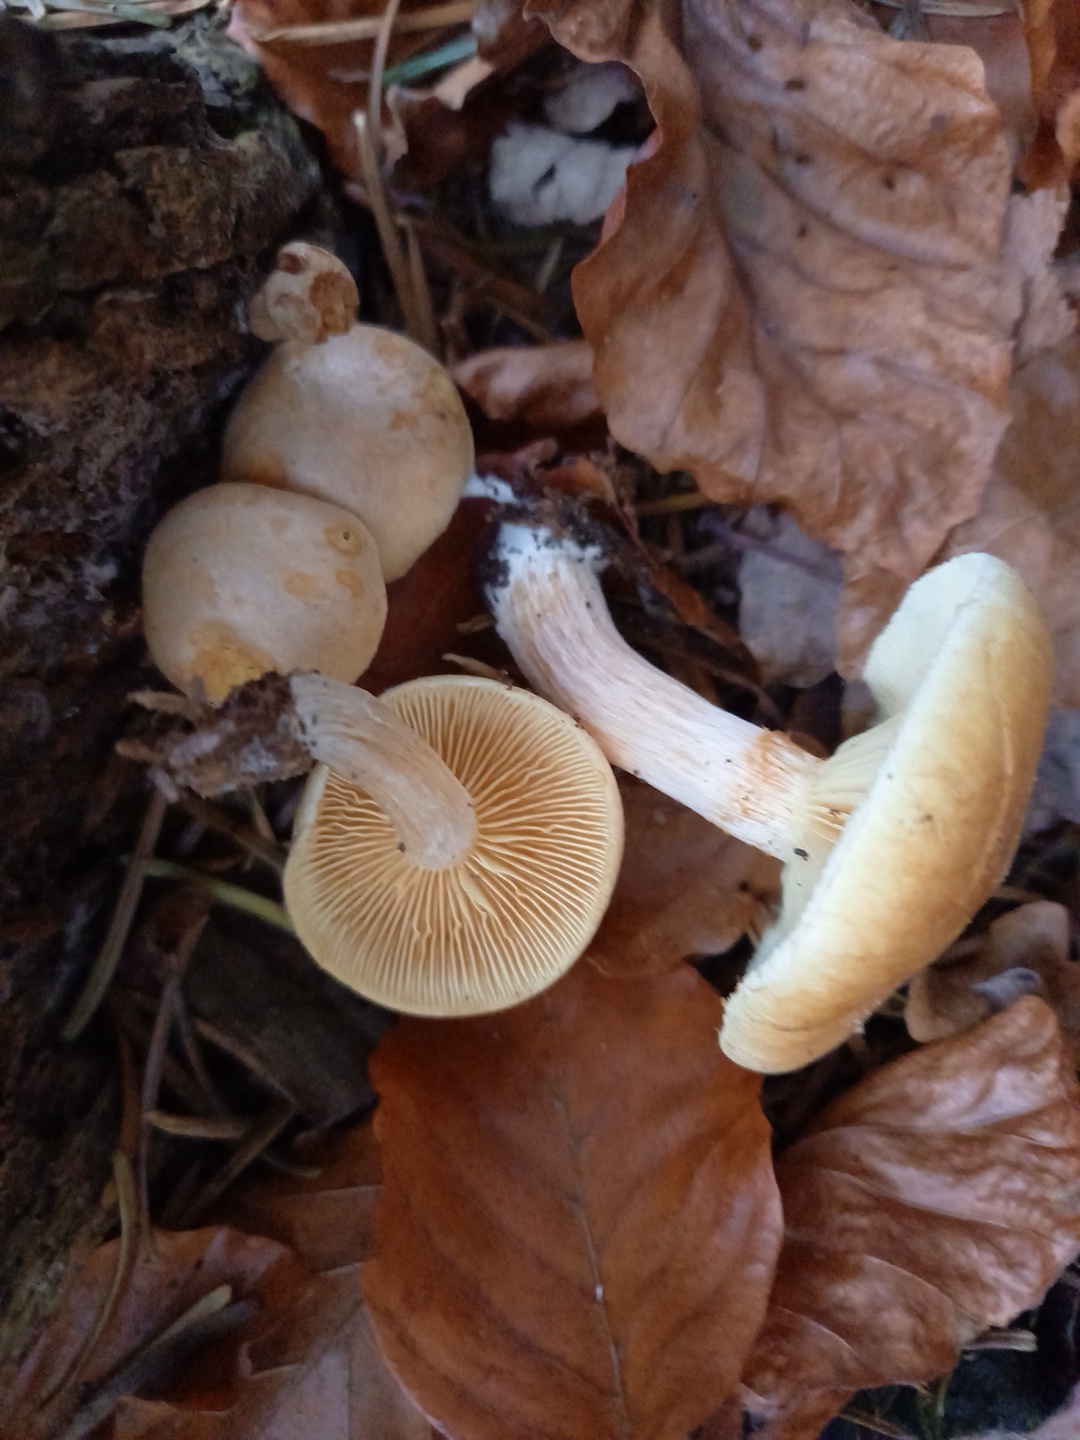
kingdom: Fungi
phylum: Basidiomycota
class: Agaricomycetes
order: Agaricales
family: Hymenogastraceae
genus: Gymnopilus
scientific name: Gymnopilus penetrans
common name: plettet flammehat
